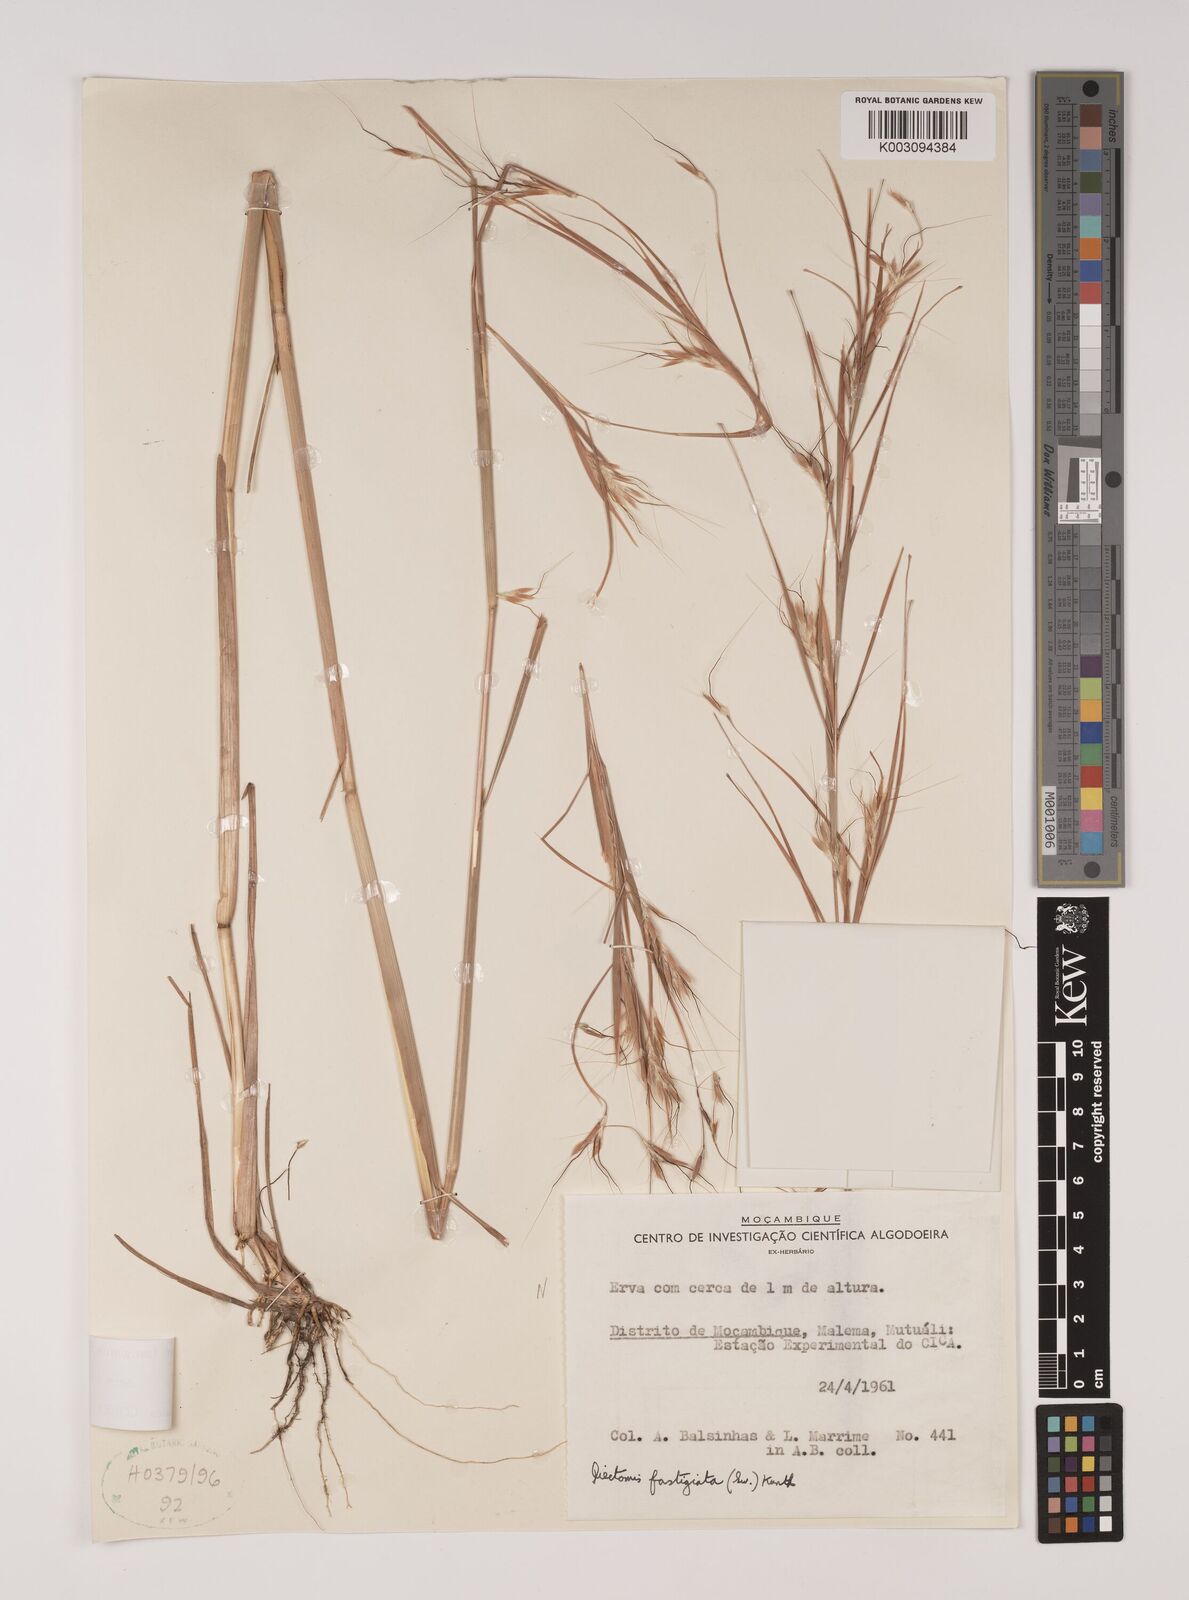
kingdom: Plantae
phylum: Tracheophyta
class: Liliopsida
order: Poales
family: Poaceae
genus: Andropogon
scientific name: Andropogon festuciformis
